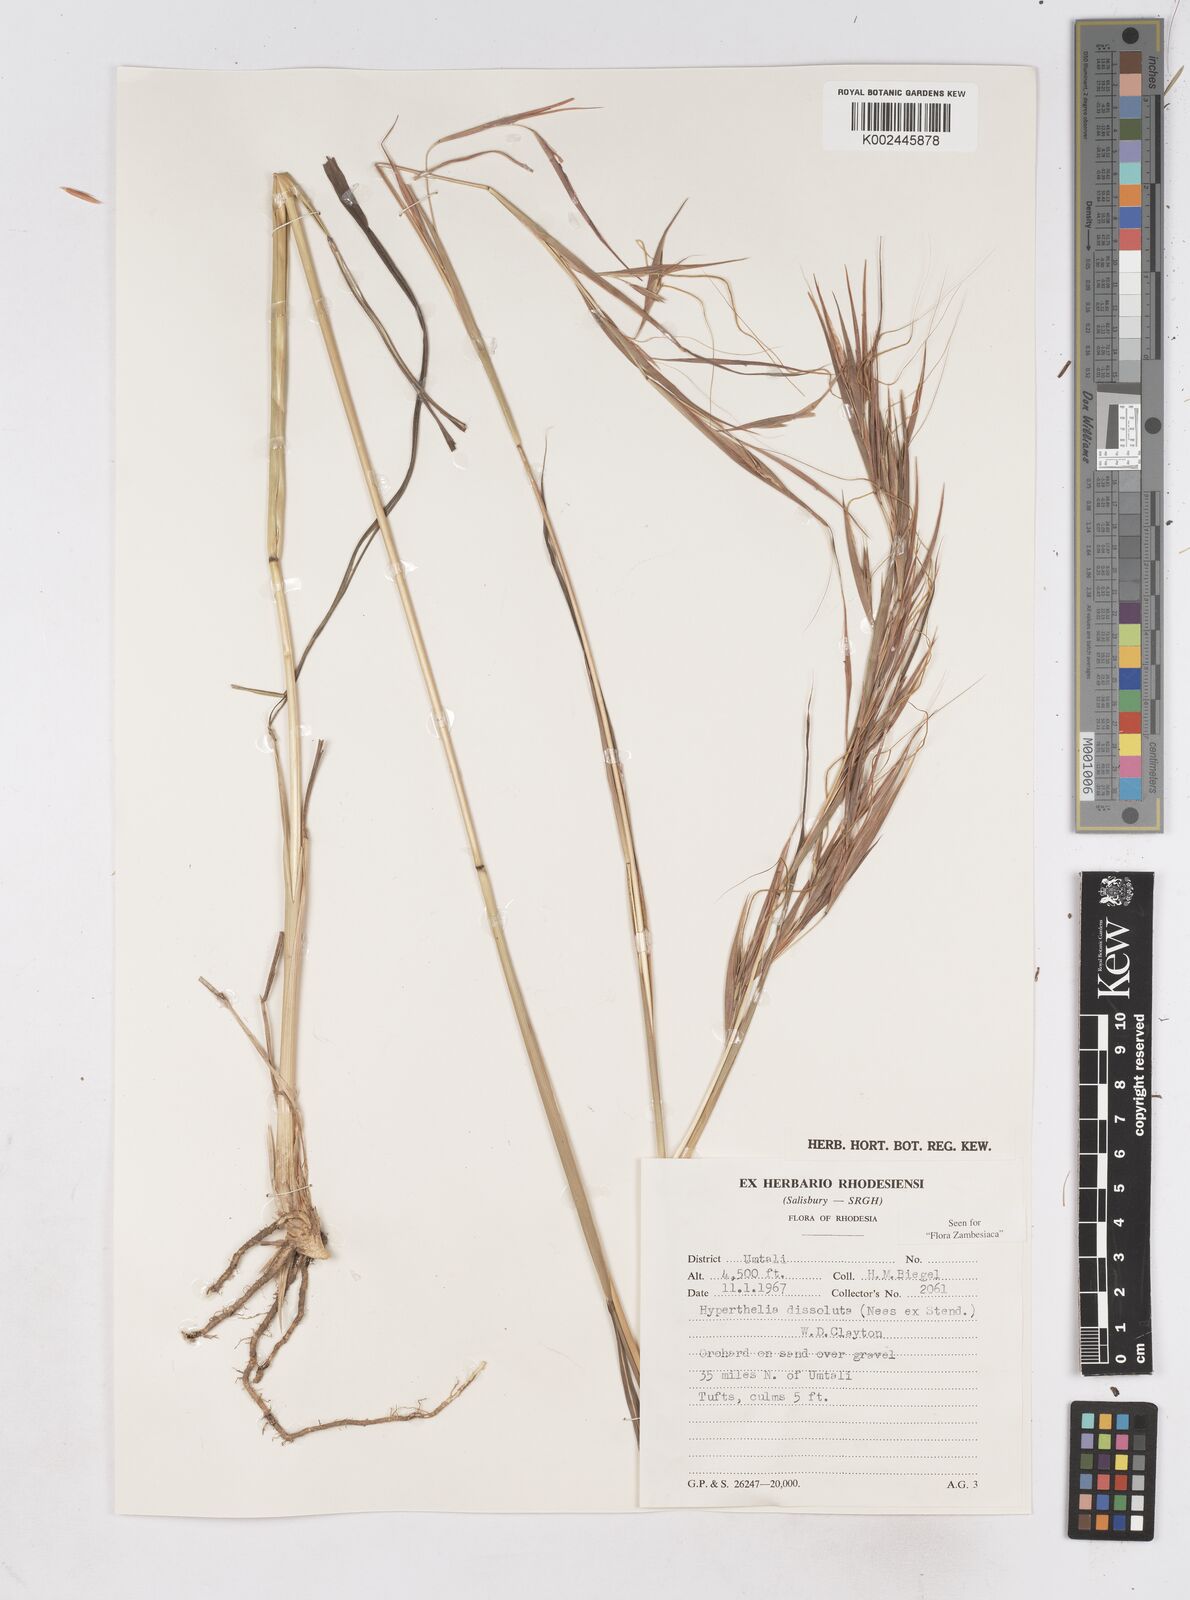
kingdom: Plantae
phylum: Tracheophyta
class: Liliopsida
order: Poales
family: Poaceae
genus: Hyperthelia
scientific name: Hyperthelia dissoluta
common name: Yellow thatching grass
